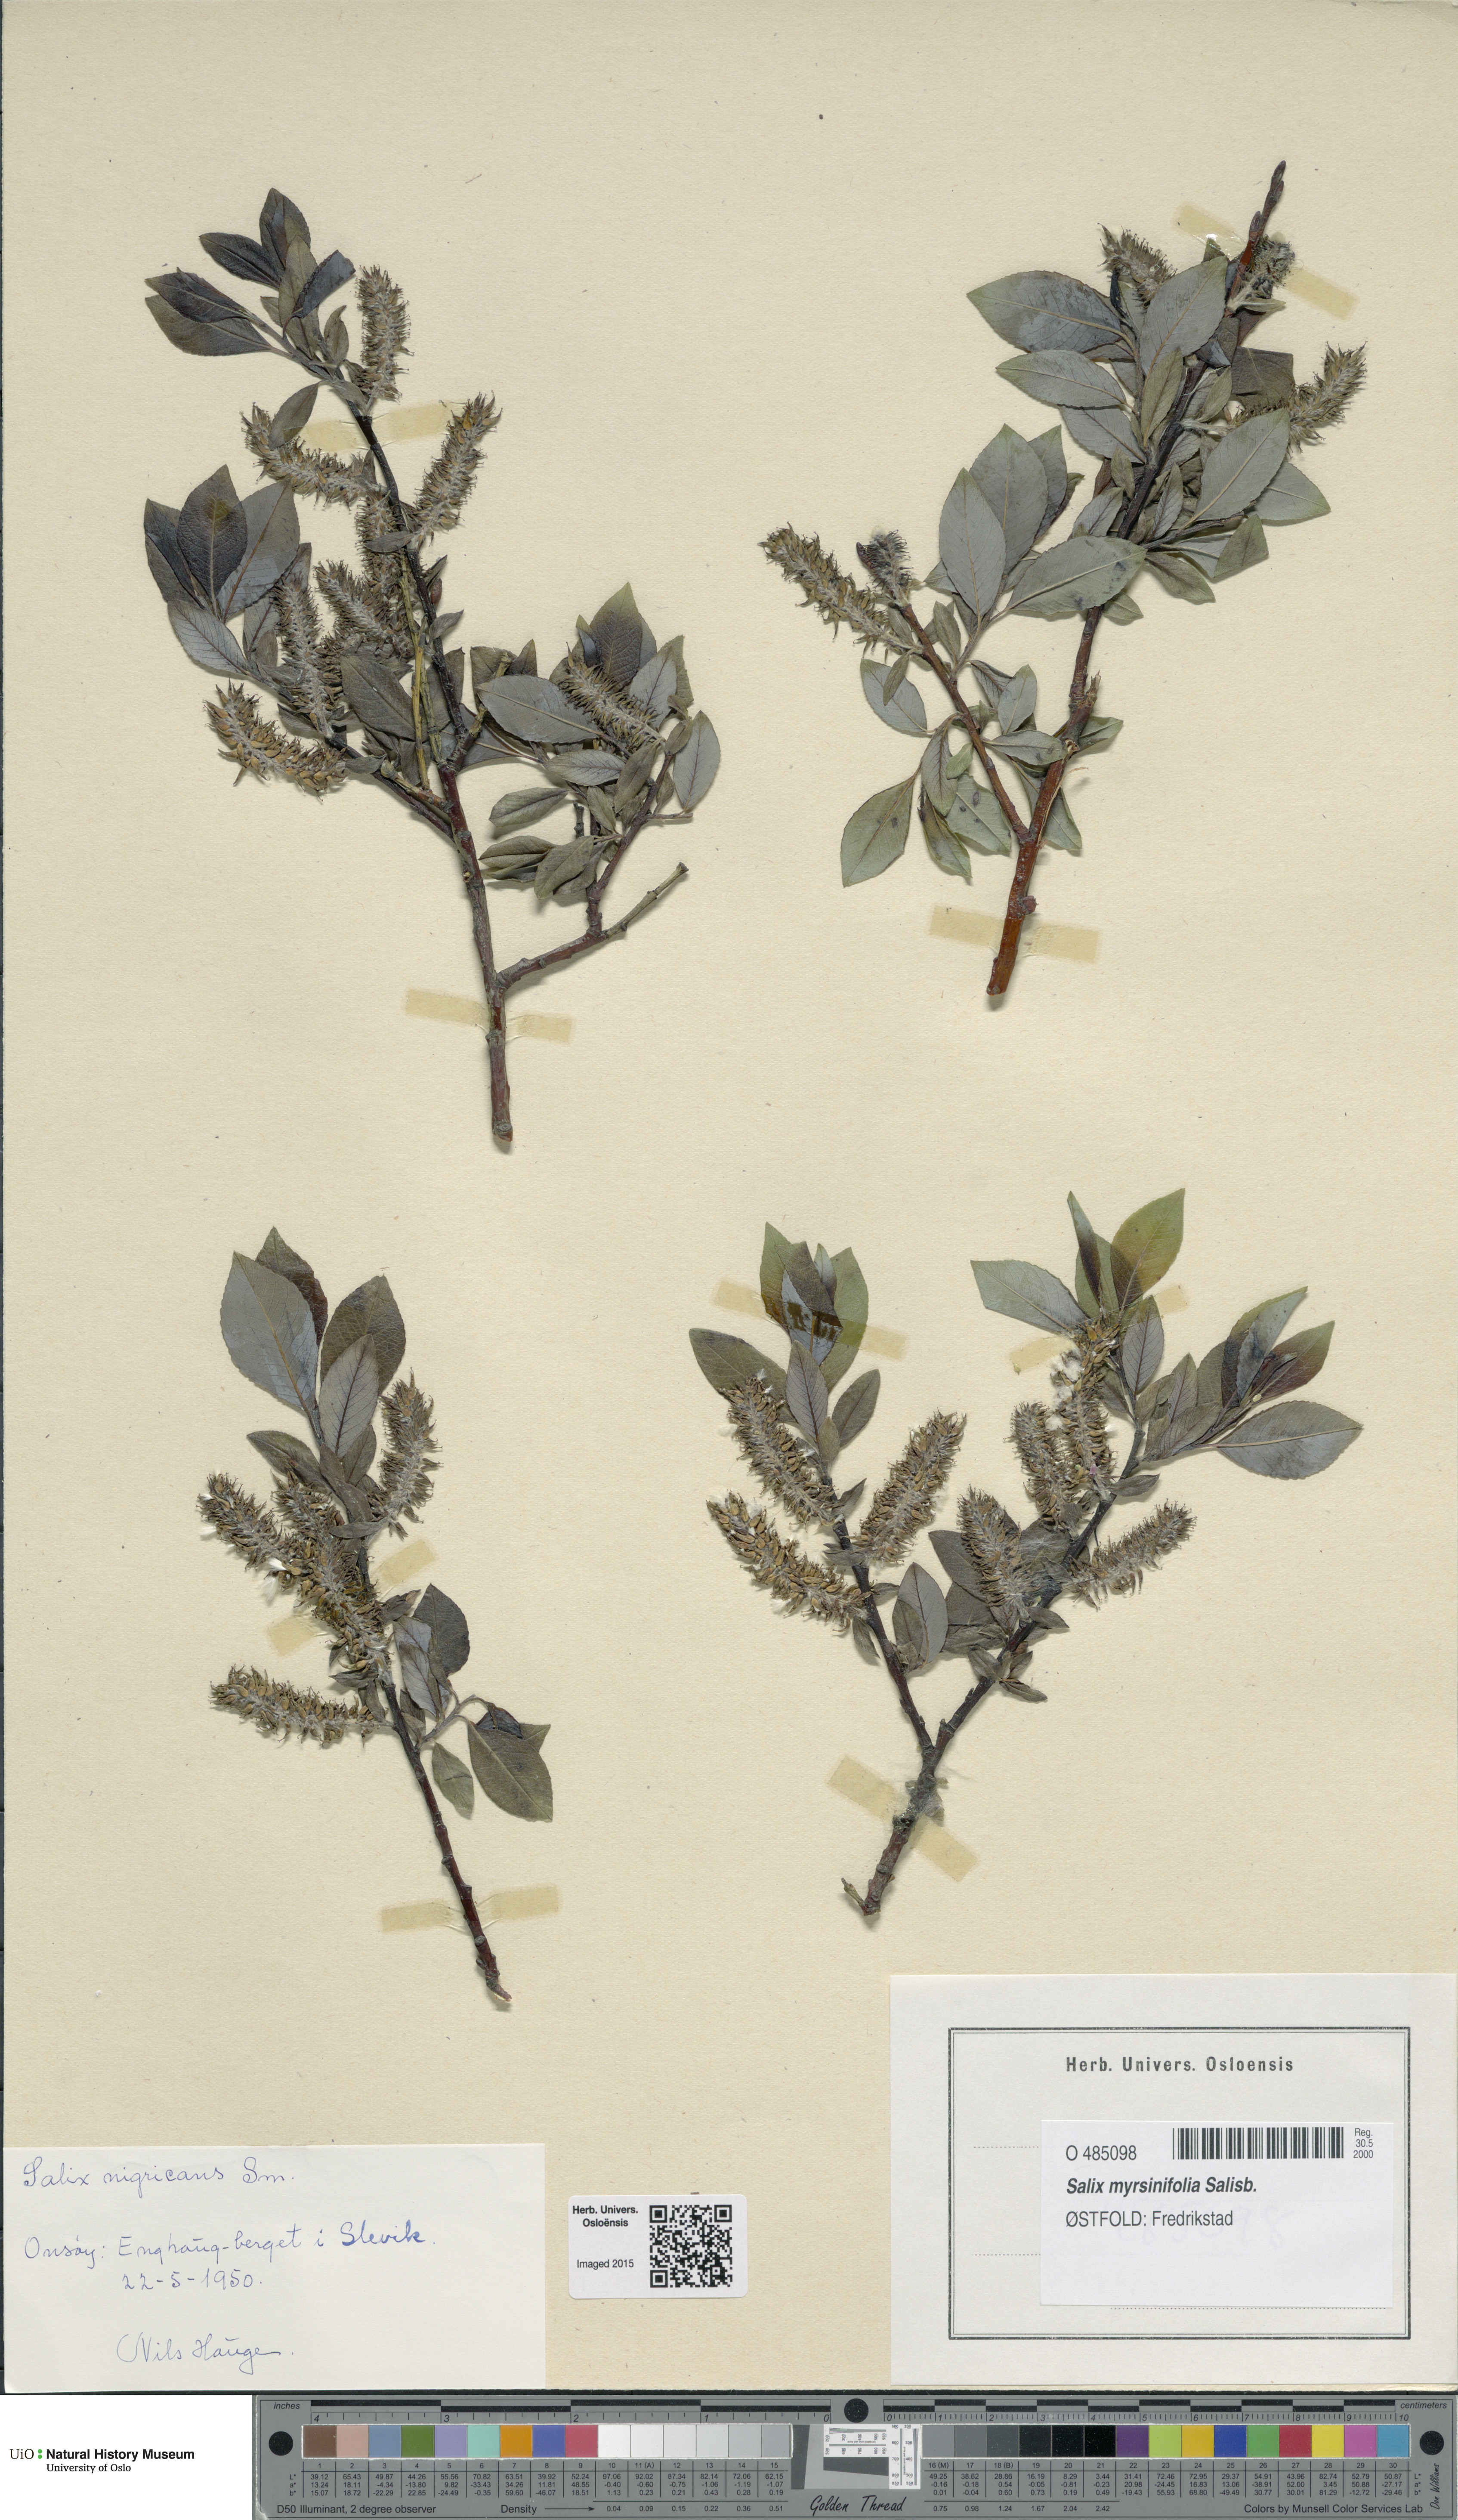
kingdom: Plantae
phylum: Tracheophyta
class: Magnoliopsida
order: Malpighiales
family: Salicaceae
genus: Salix
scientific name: Salix myrsinifolia
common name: Dark-leaved willow
